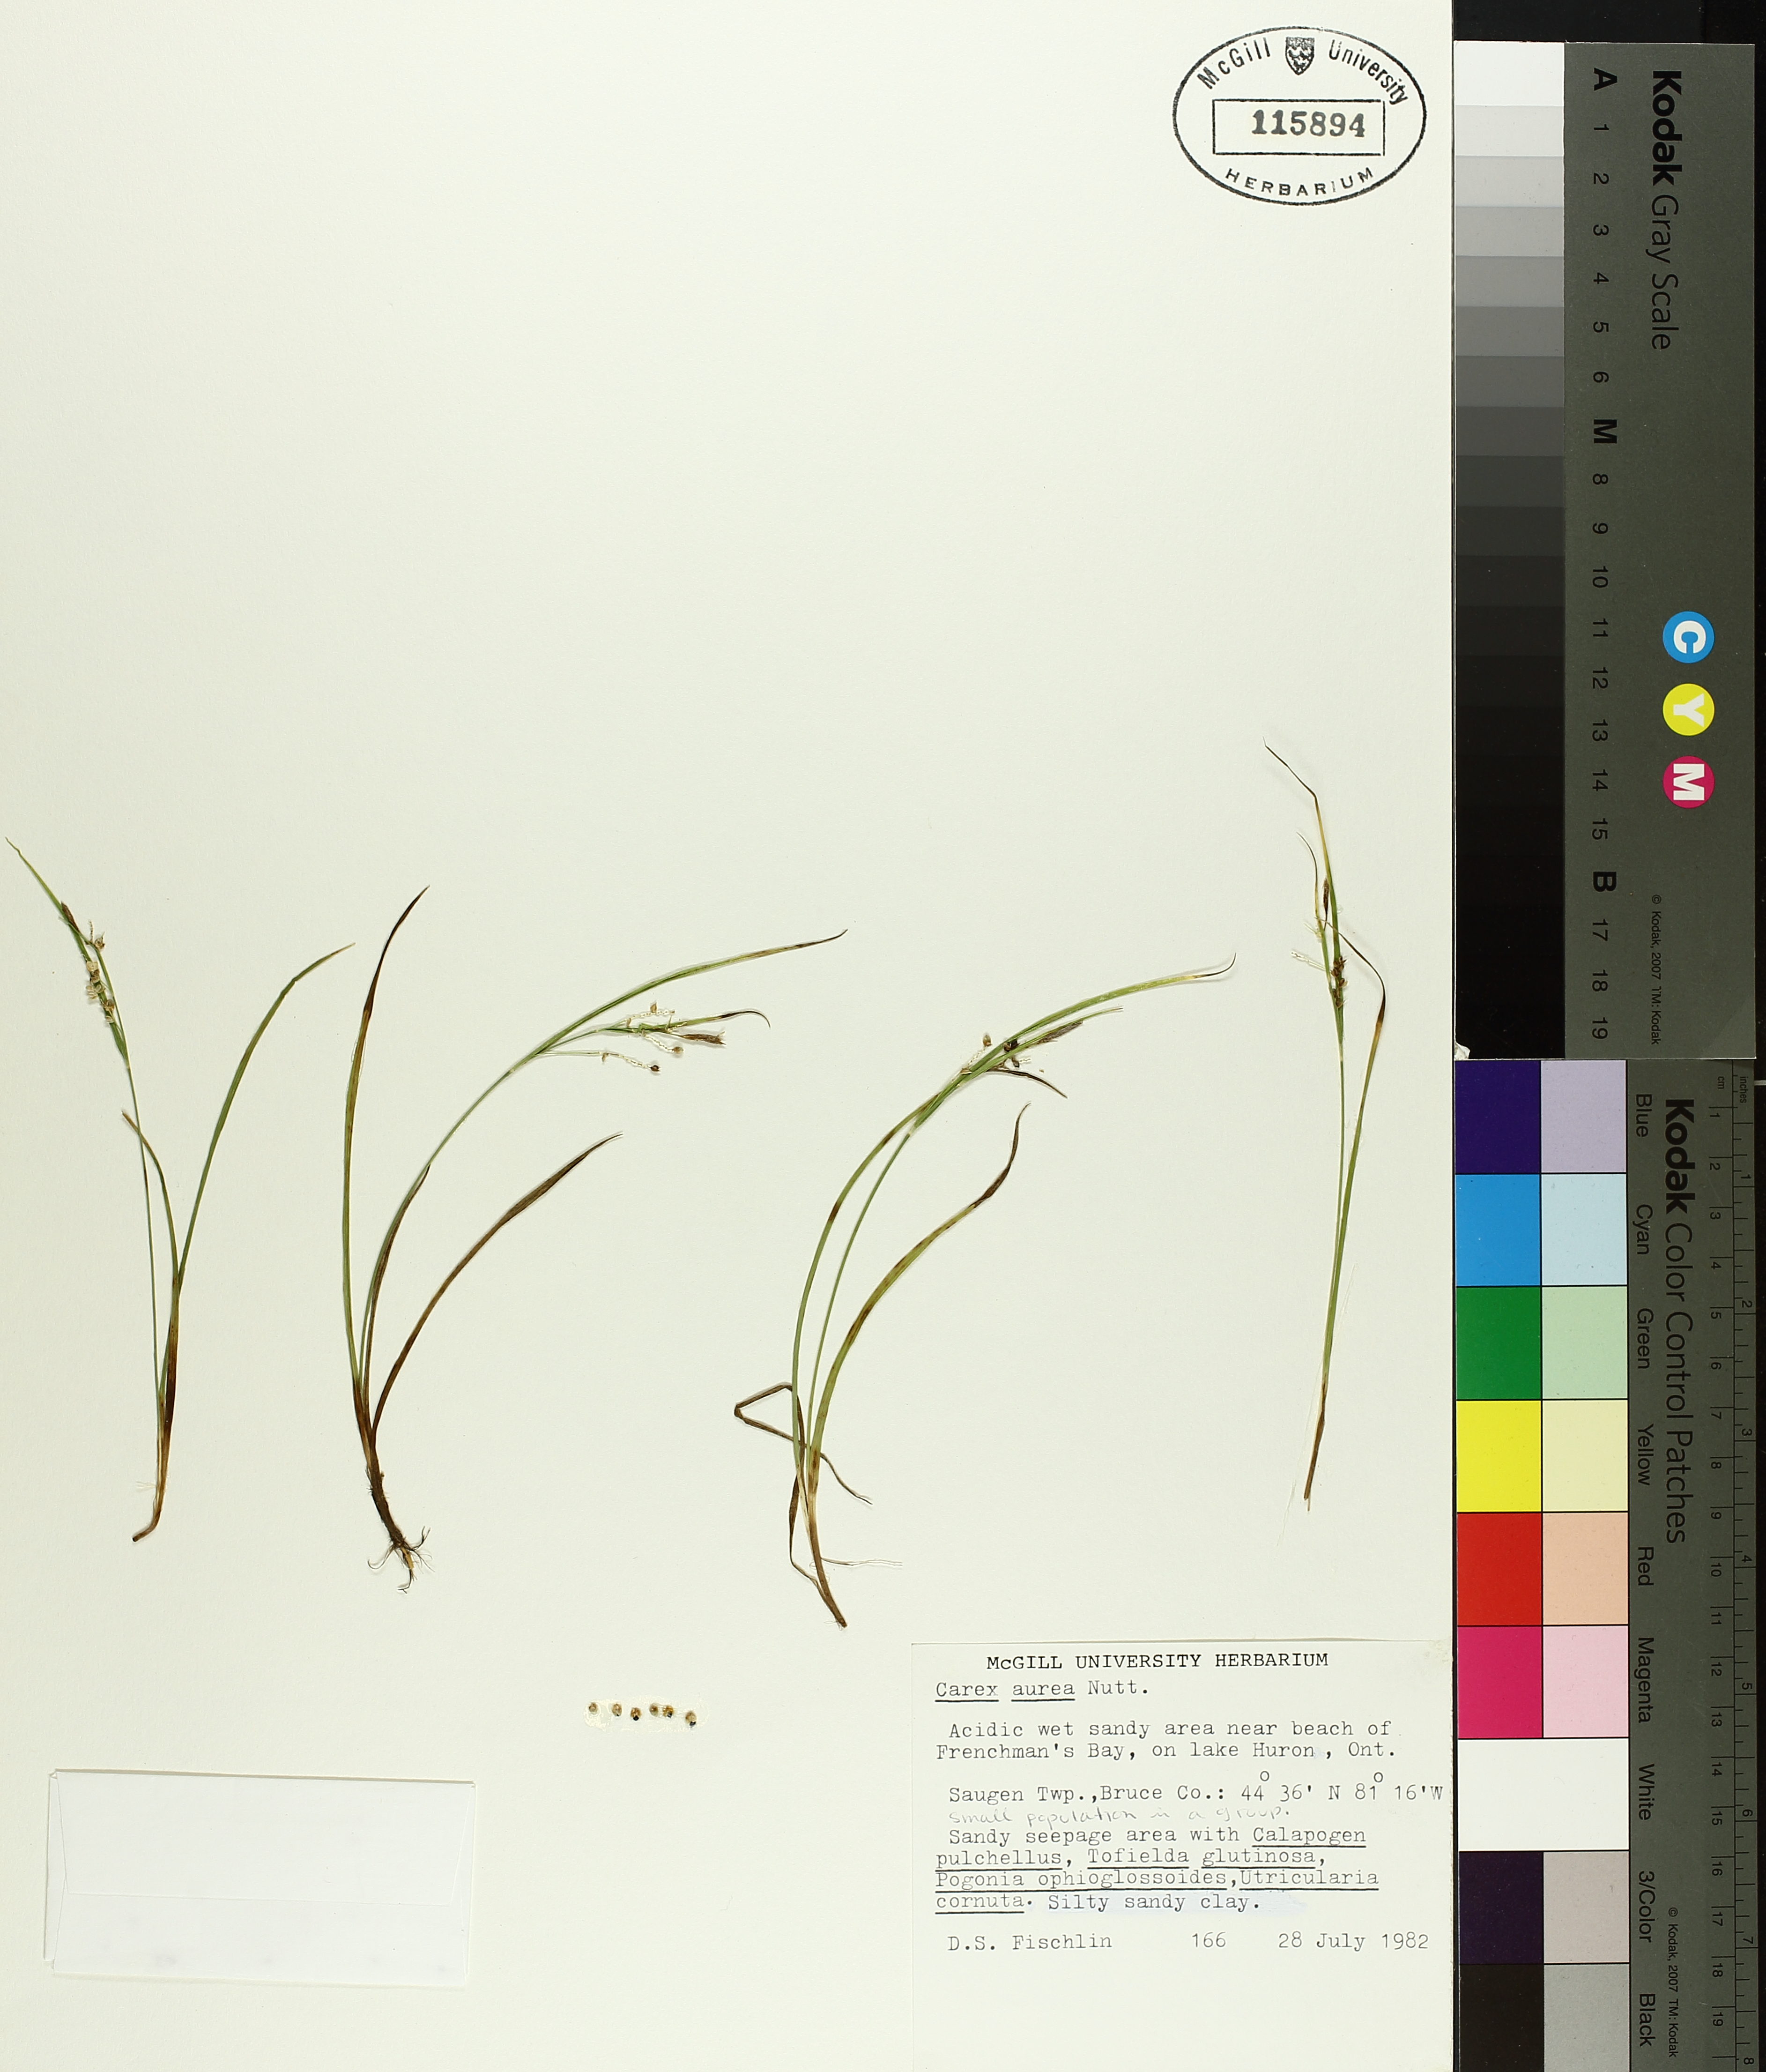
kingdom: Plantae
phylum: Tracheophyta
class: Liliopsida
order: Poales
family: Cyperaceae
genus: Carex
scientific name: Carex aurea
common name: Golden sedge
